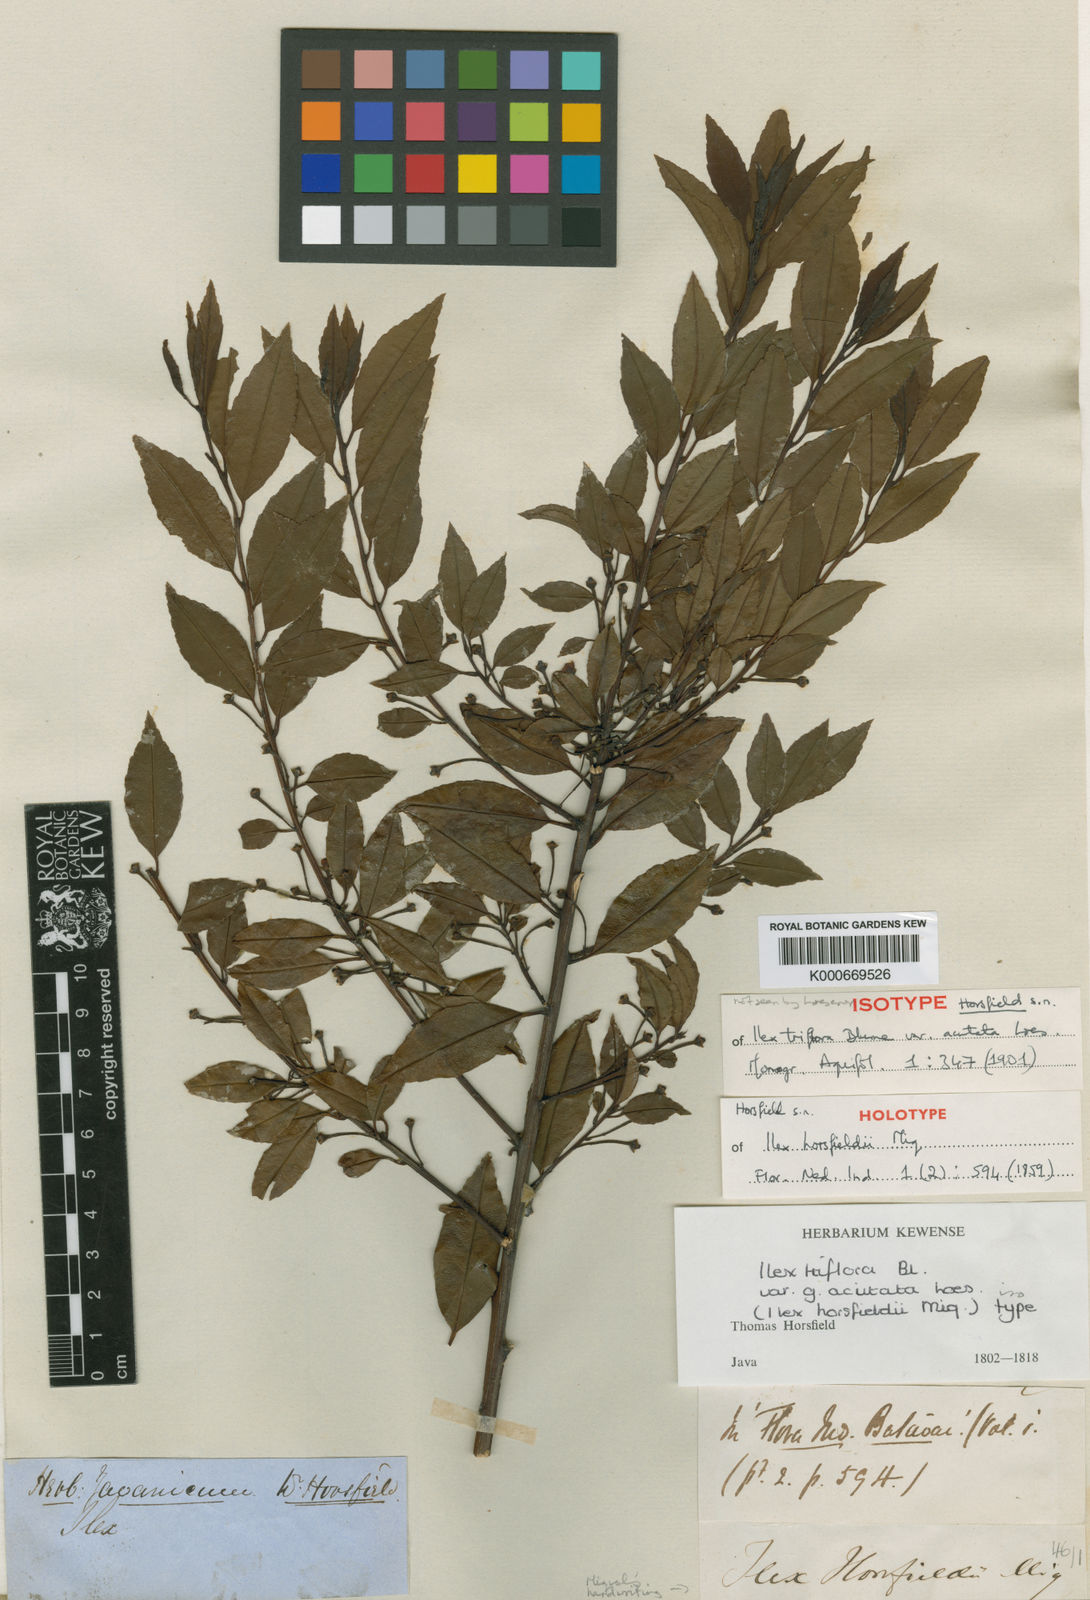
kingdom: Plantae
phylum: Tracheophyta
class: Magnoliopsida
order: Aquifoliales
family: Aquifoliaceae
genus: Ilex
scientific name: Ilex triflora
